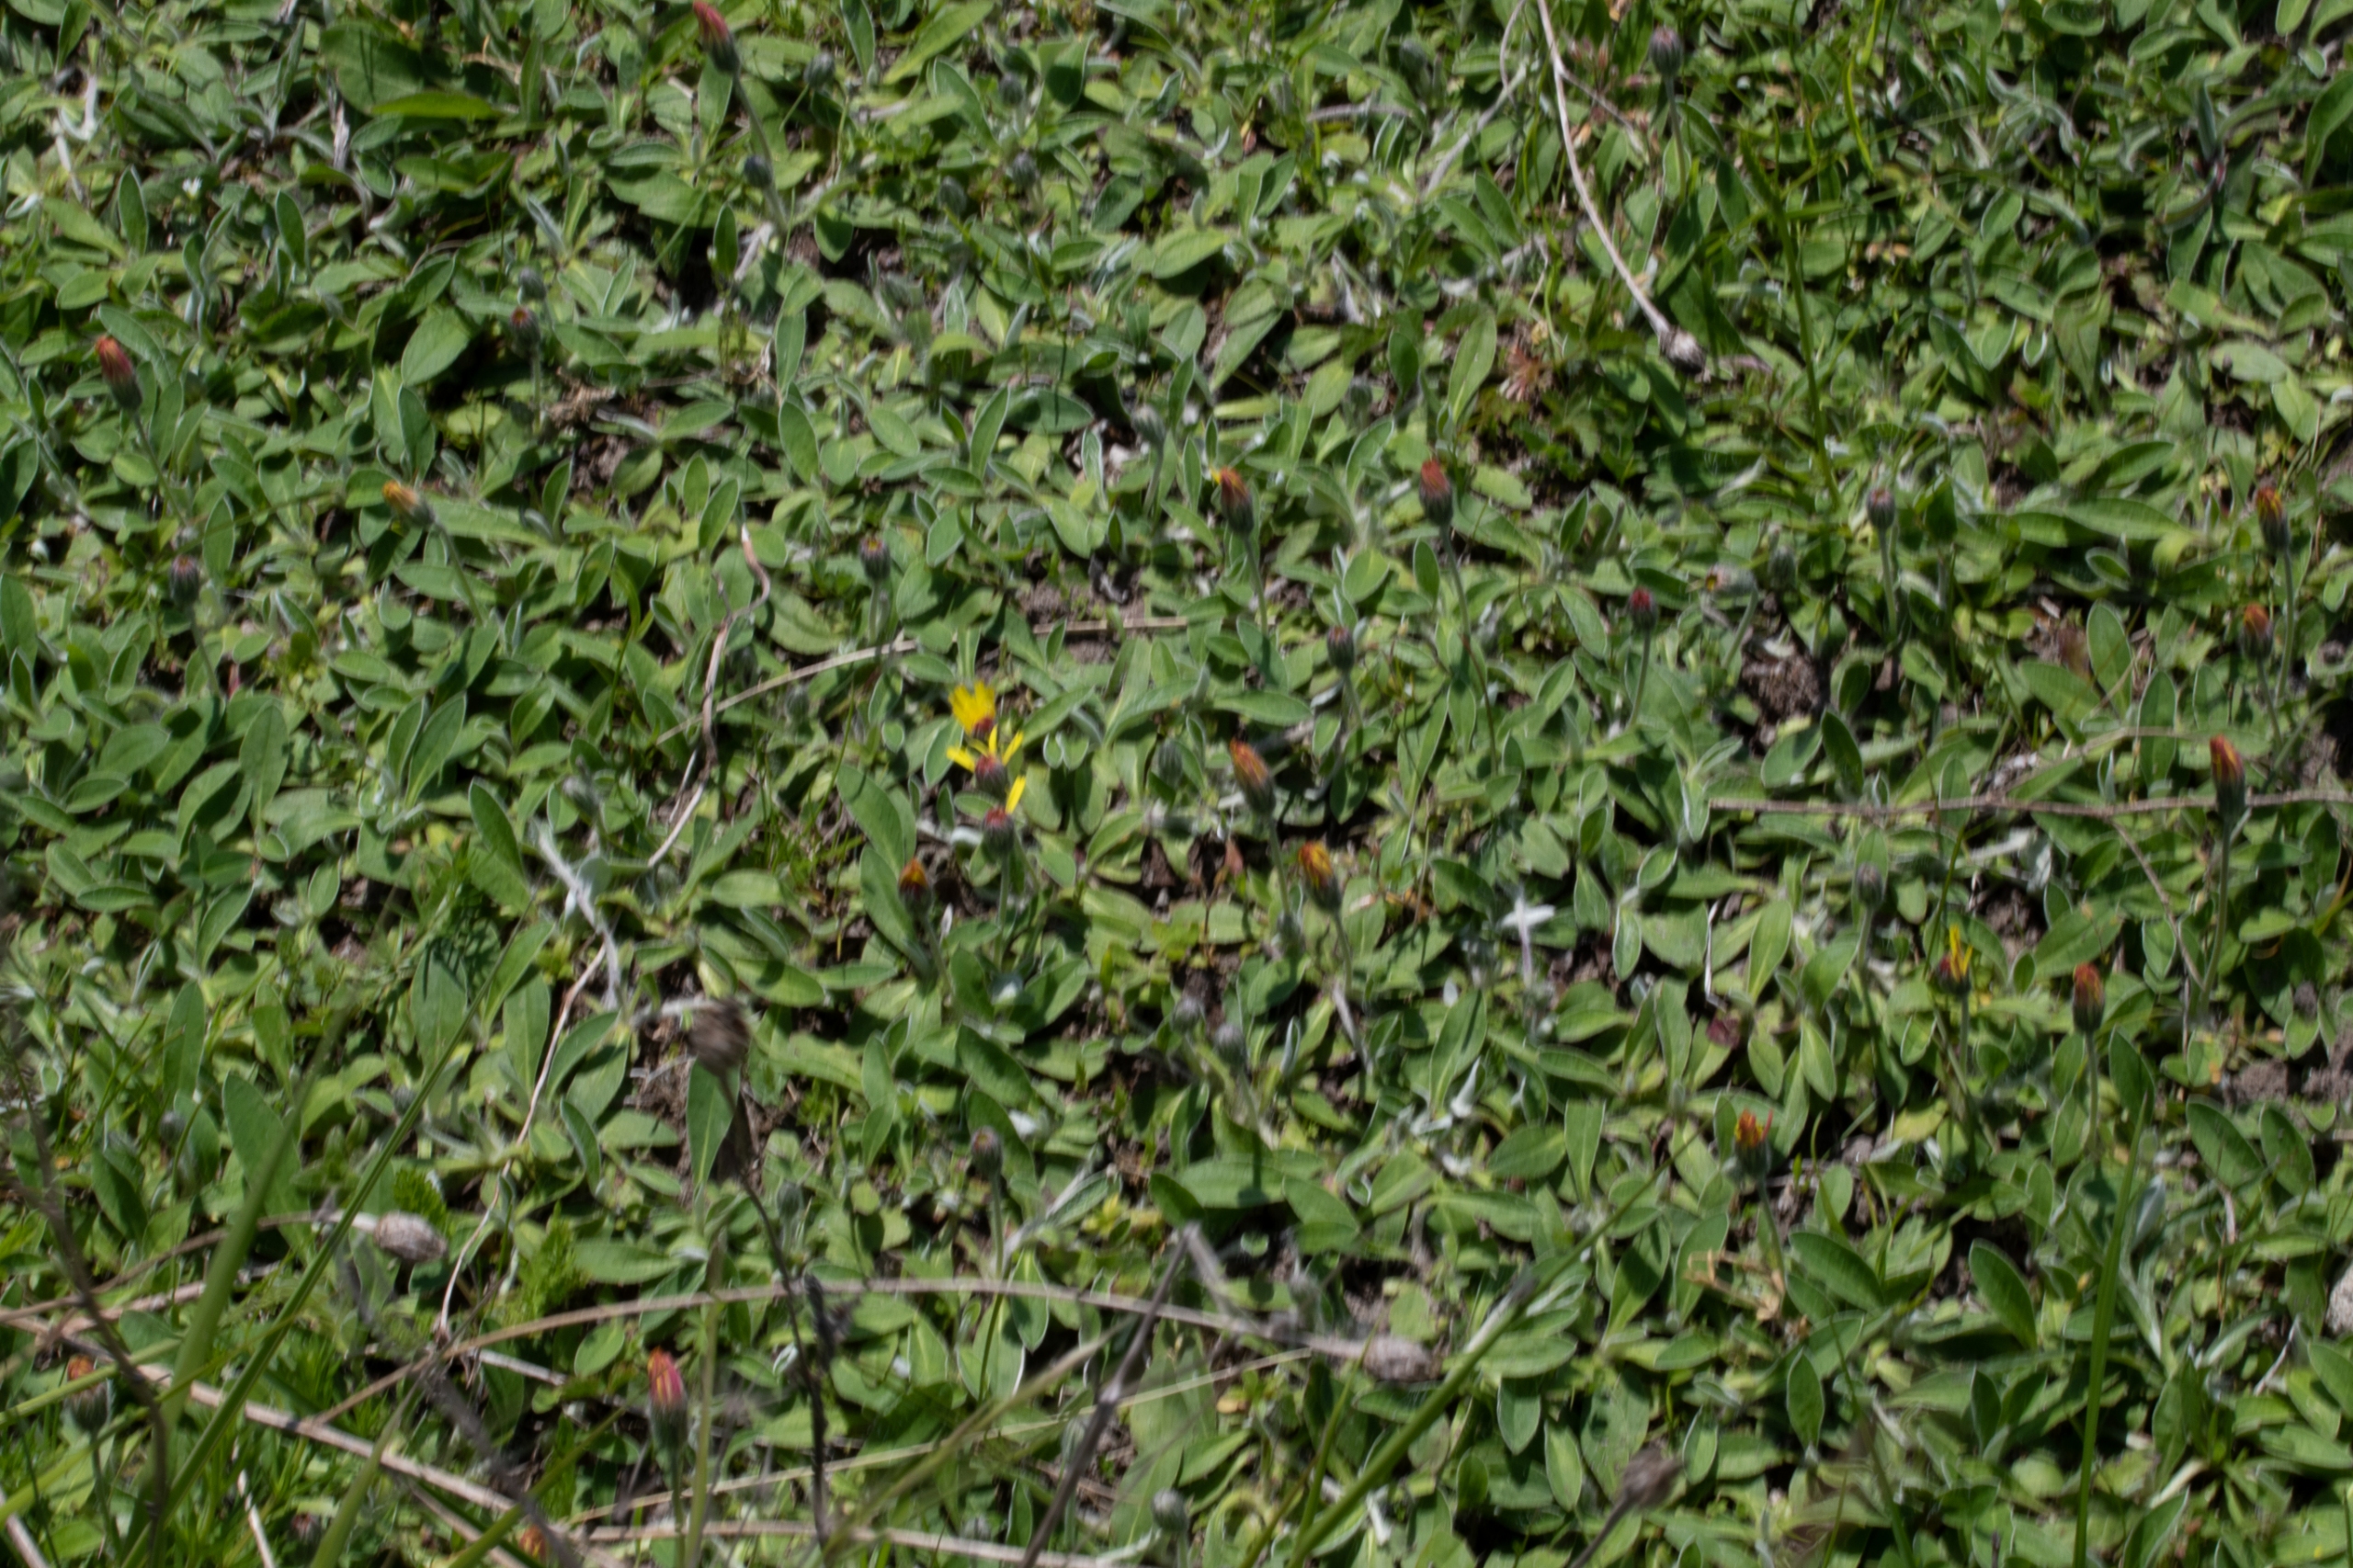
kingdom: Plantae
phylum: Tracheophyta
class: Magnoliopsida
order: Asterales
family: Asteraceae
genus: Pilosella
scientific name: Pilosella officinarum
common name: Håret høgeurt
